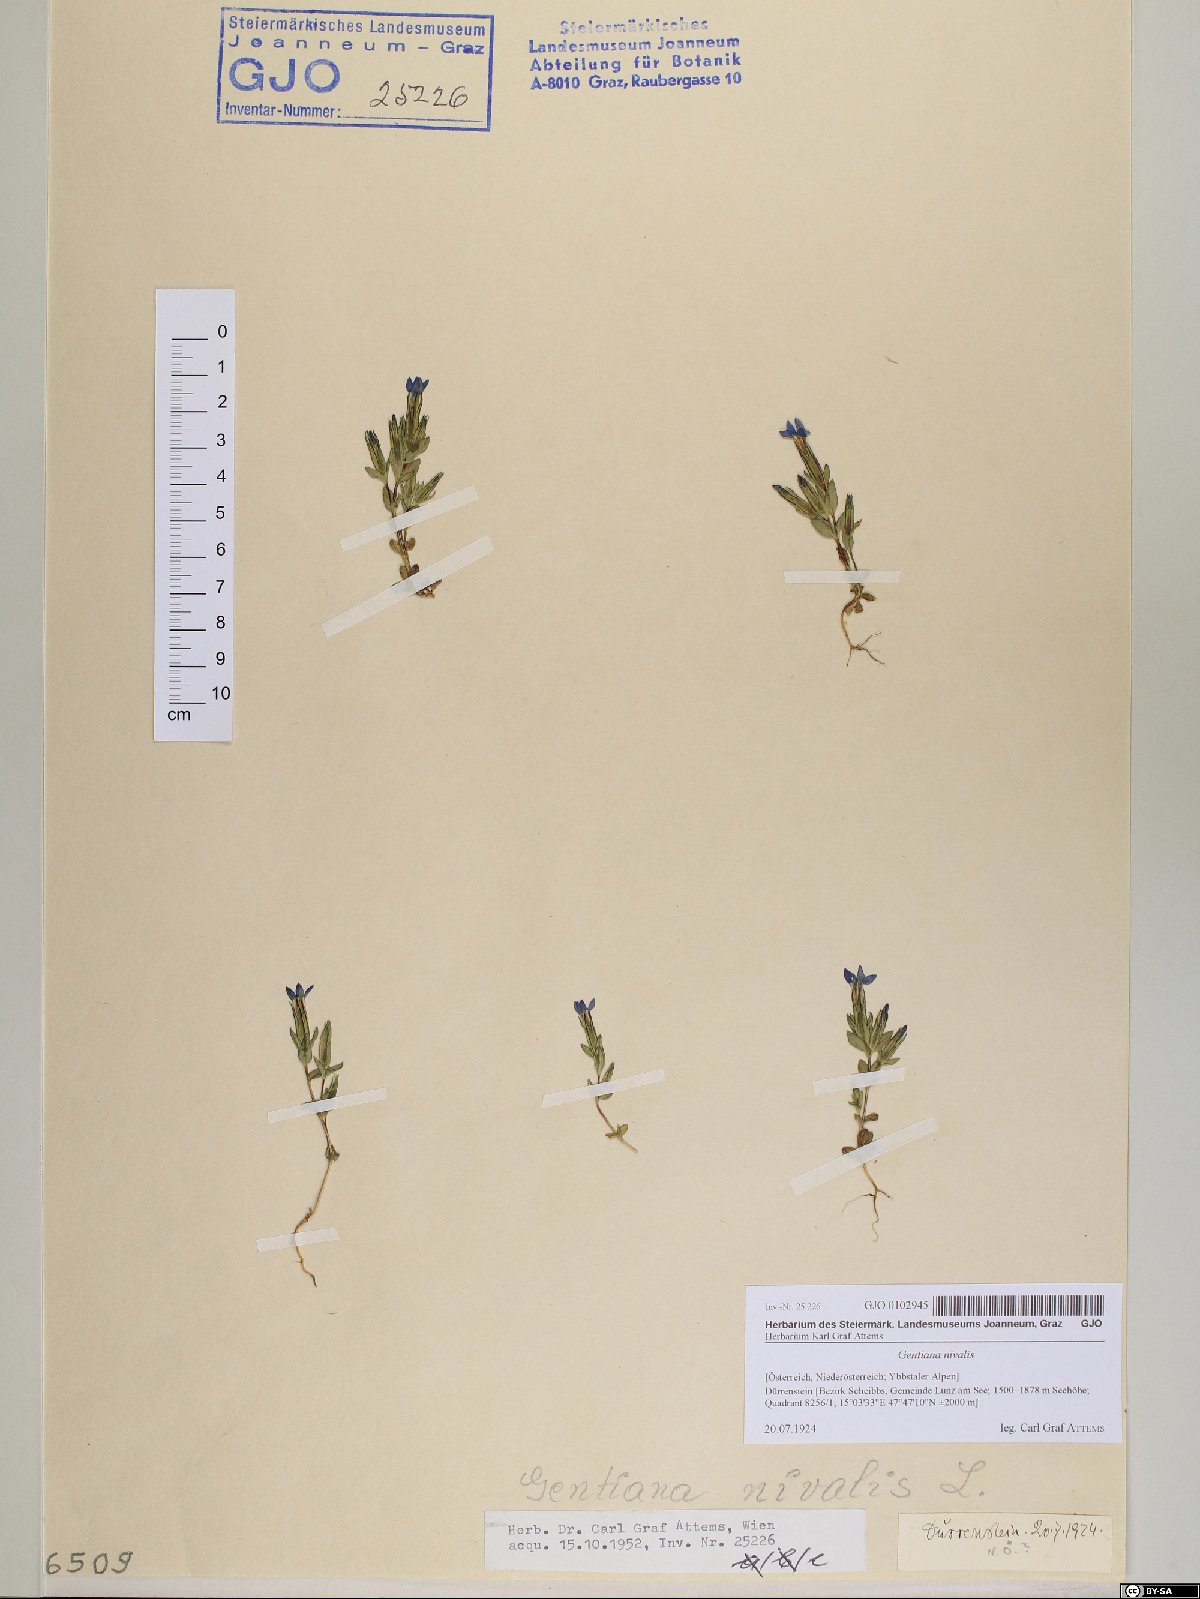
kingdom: Plantae
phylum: Tracheophyta
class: Magnoliopsida
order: Gentianales
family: Gentianaceae
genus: Gentiana
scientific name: Gentiana nivalis
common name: Alpine gentian
